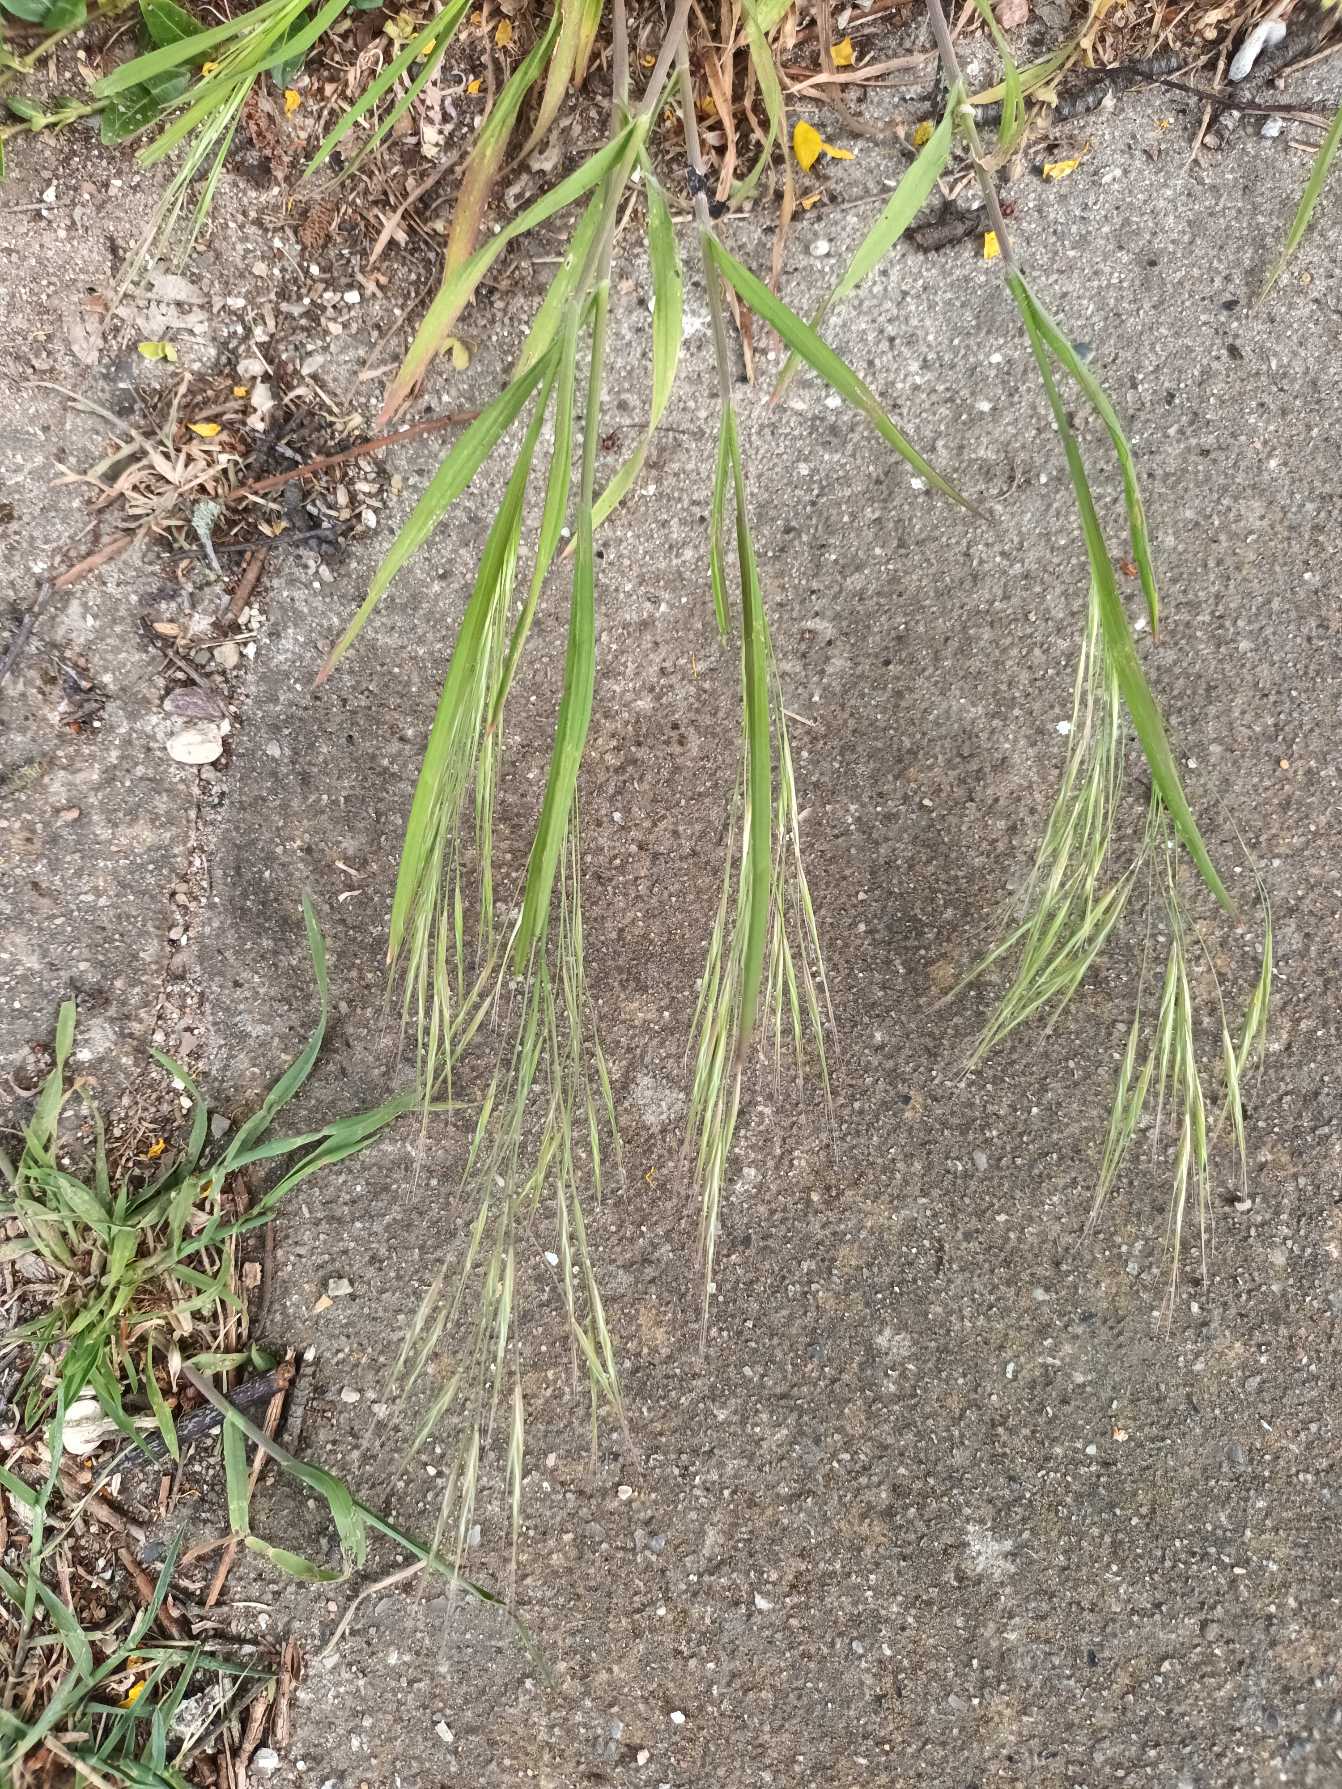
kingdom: Plantae
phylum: Tracheophyta
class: Liliopsida
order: Poales
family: Poaceae
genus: Bromus
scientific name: Bromus sterilis
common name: Gold hejre
